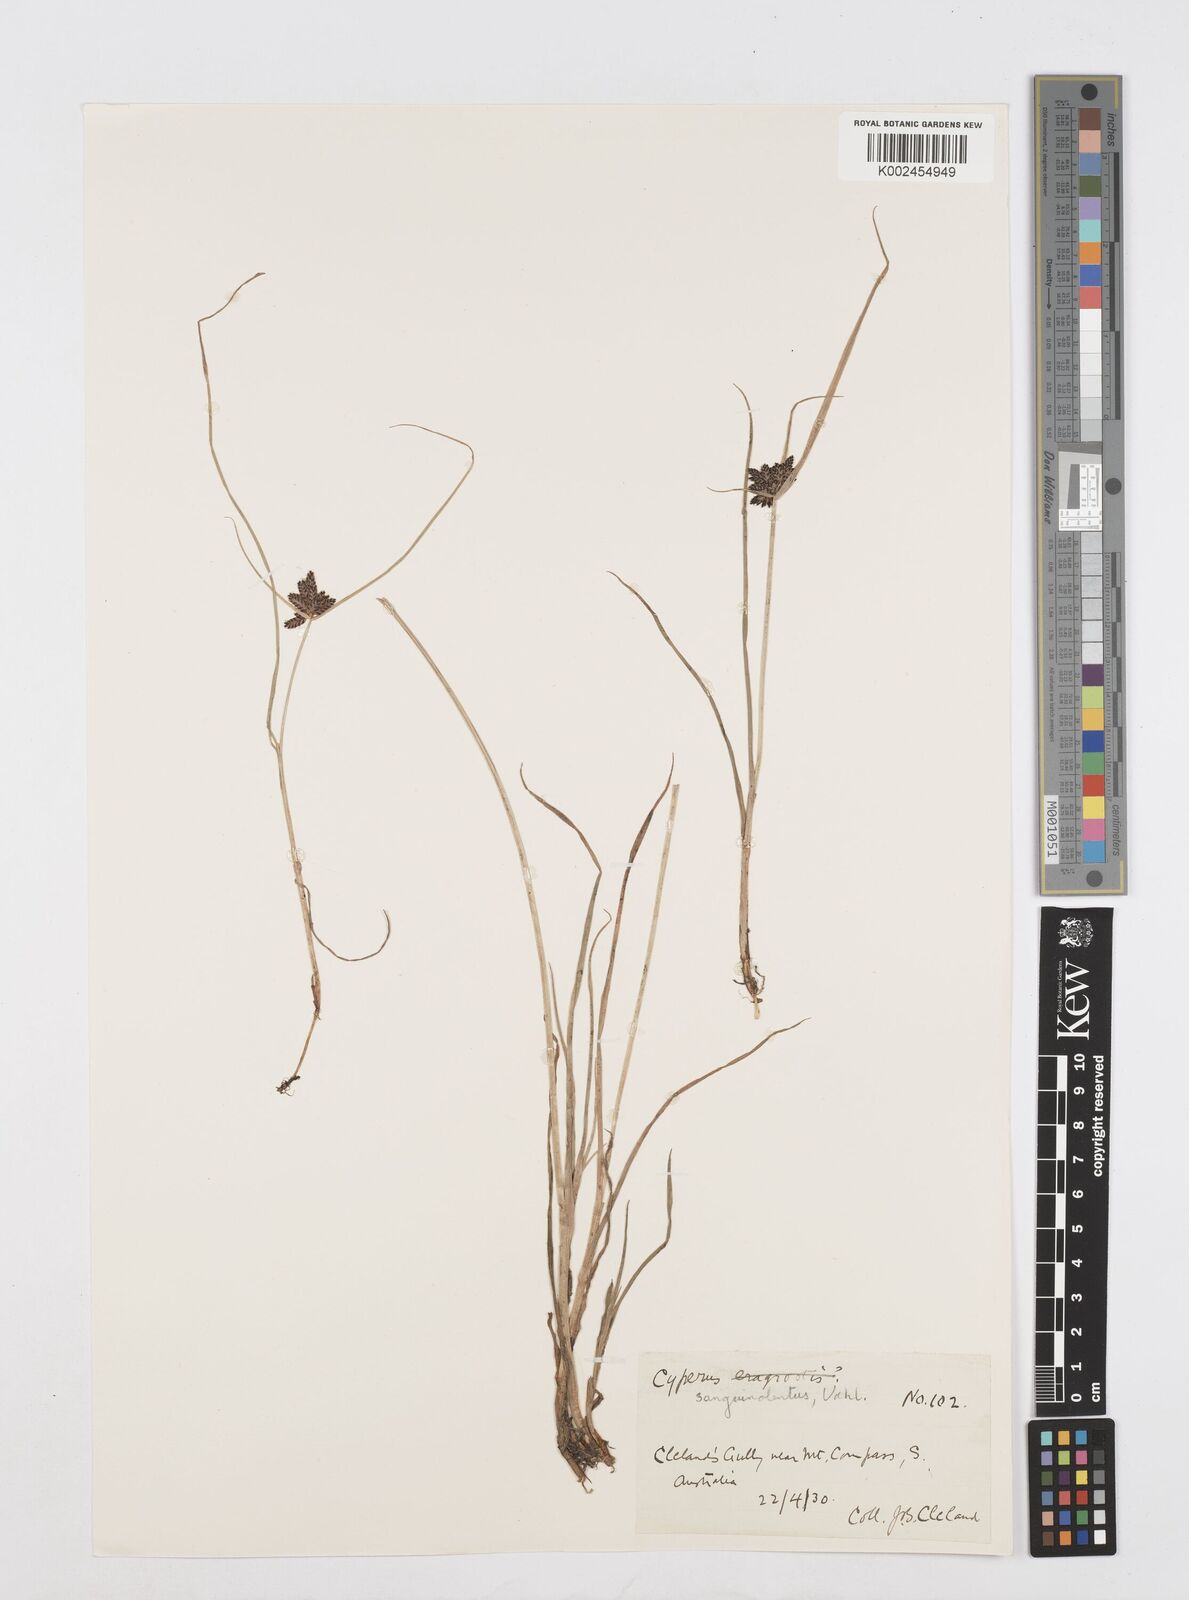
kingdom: Plantae
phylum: Tracheophyta
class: Liliopsida
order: Poales
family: Cyperaceae
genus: Cyperus
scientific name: Cyperus sanguinolentus
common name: Purpleglume flatsedge
